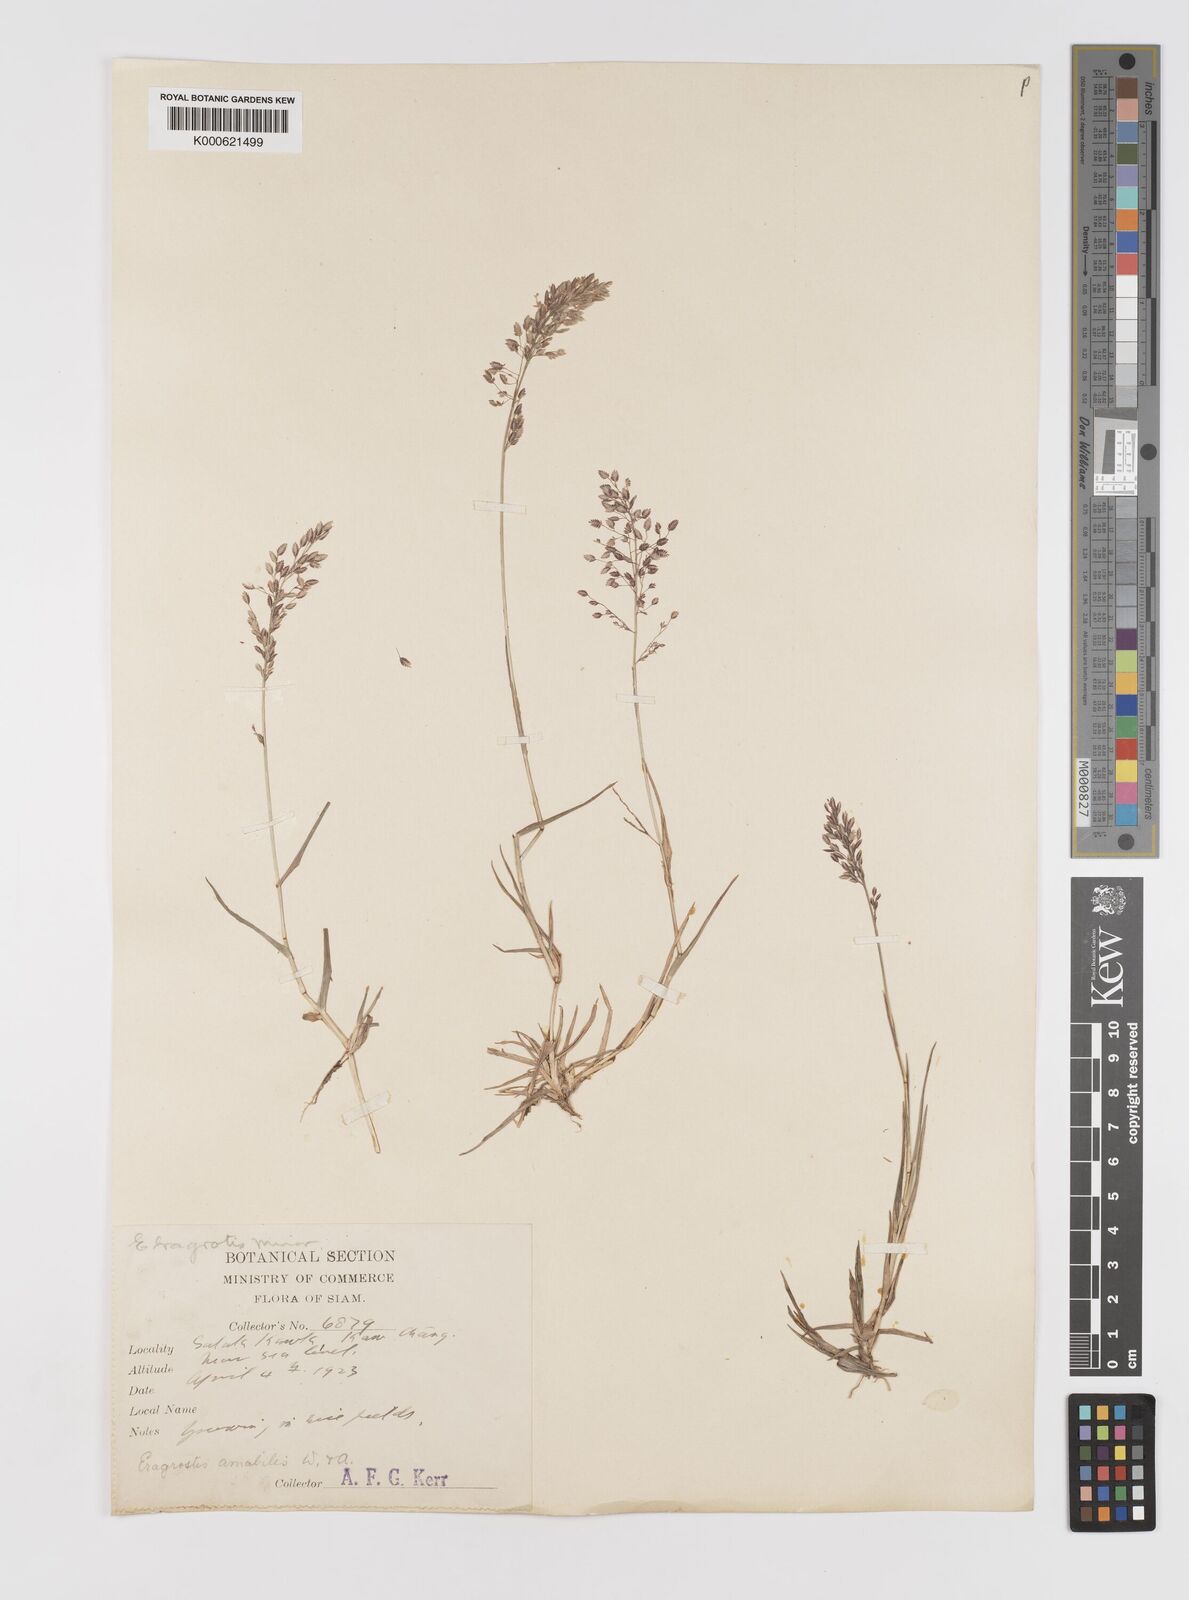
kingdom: Plantae
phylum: Tracheophyta
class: Liliopsida
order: Poales
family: Poaceae
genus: Eragrostis
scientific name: Eragrostis unioloides
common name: Chinese lovegrass
